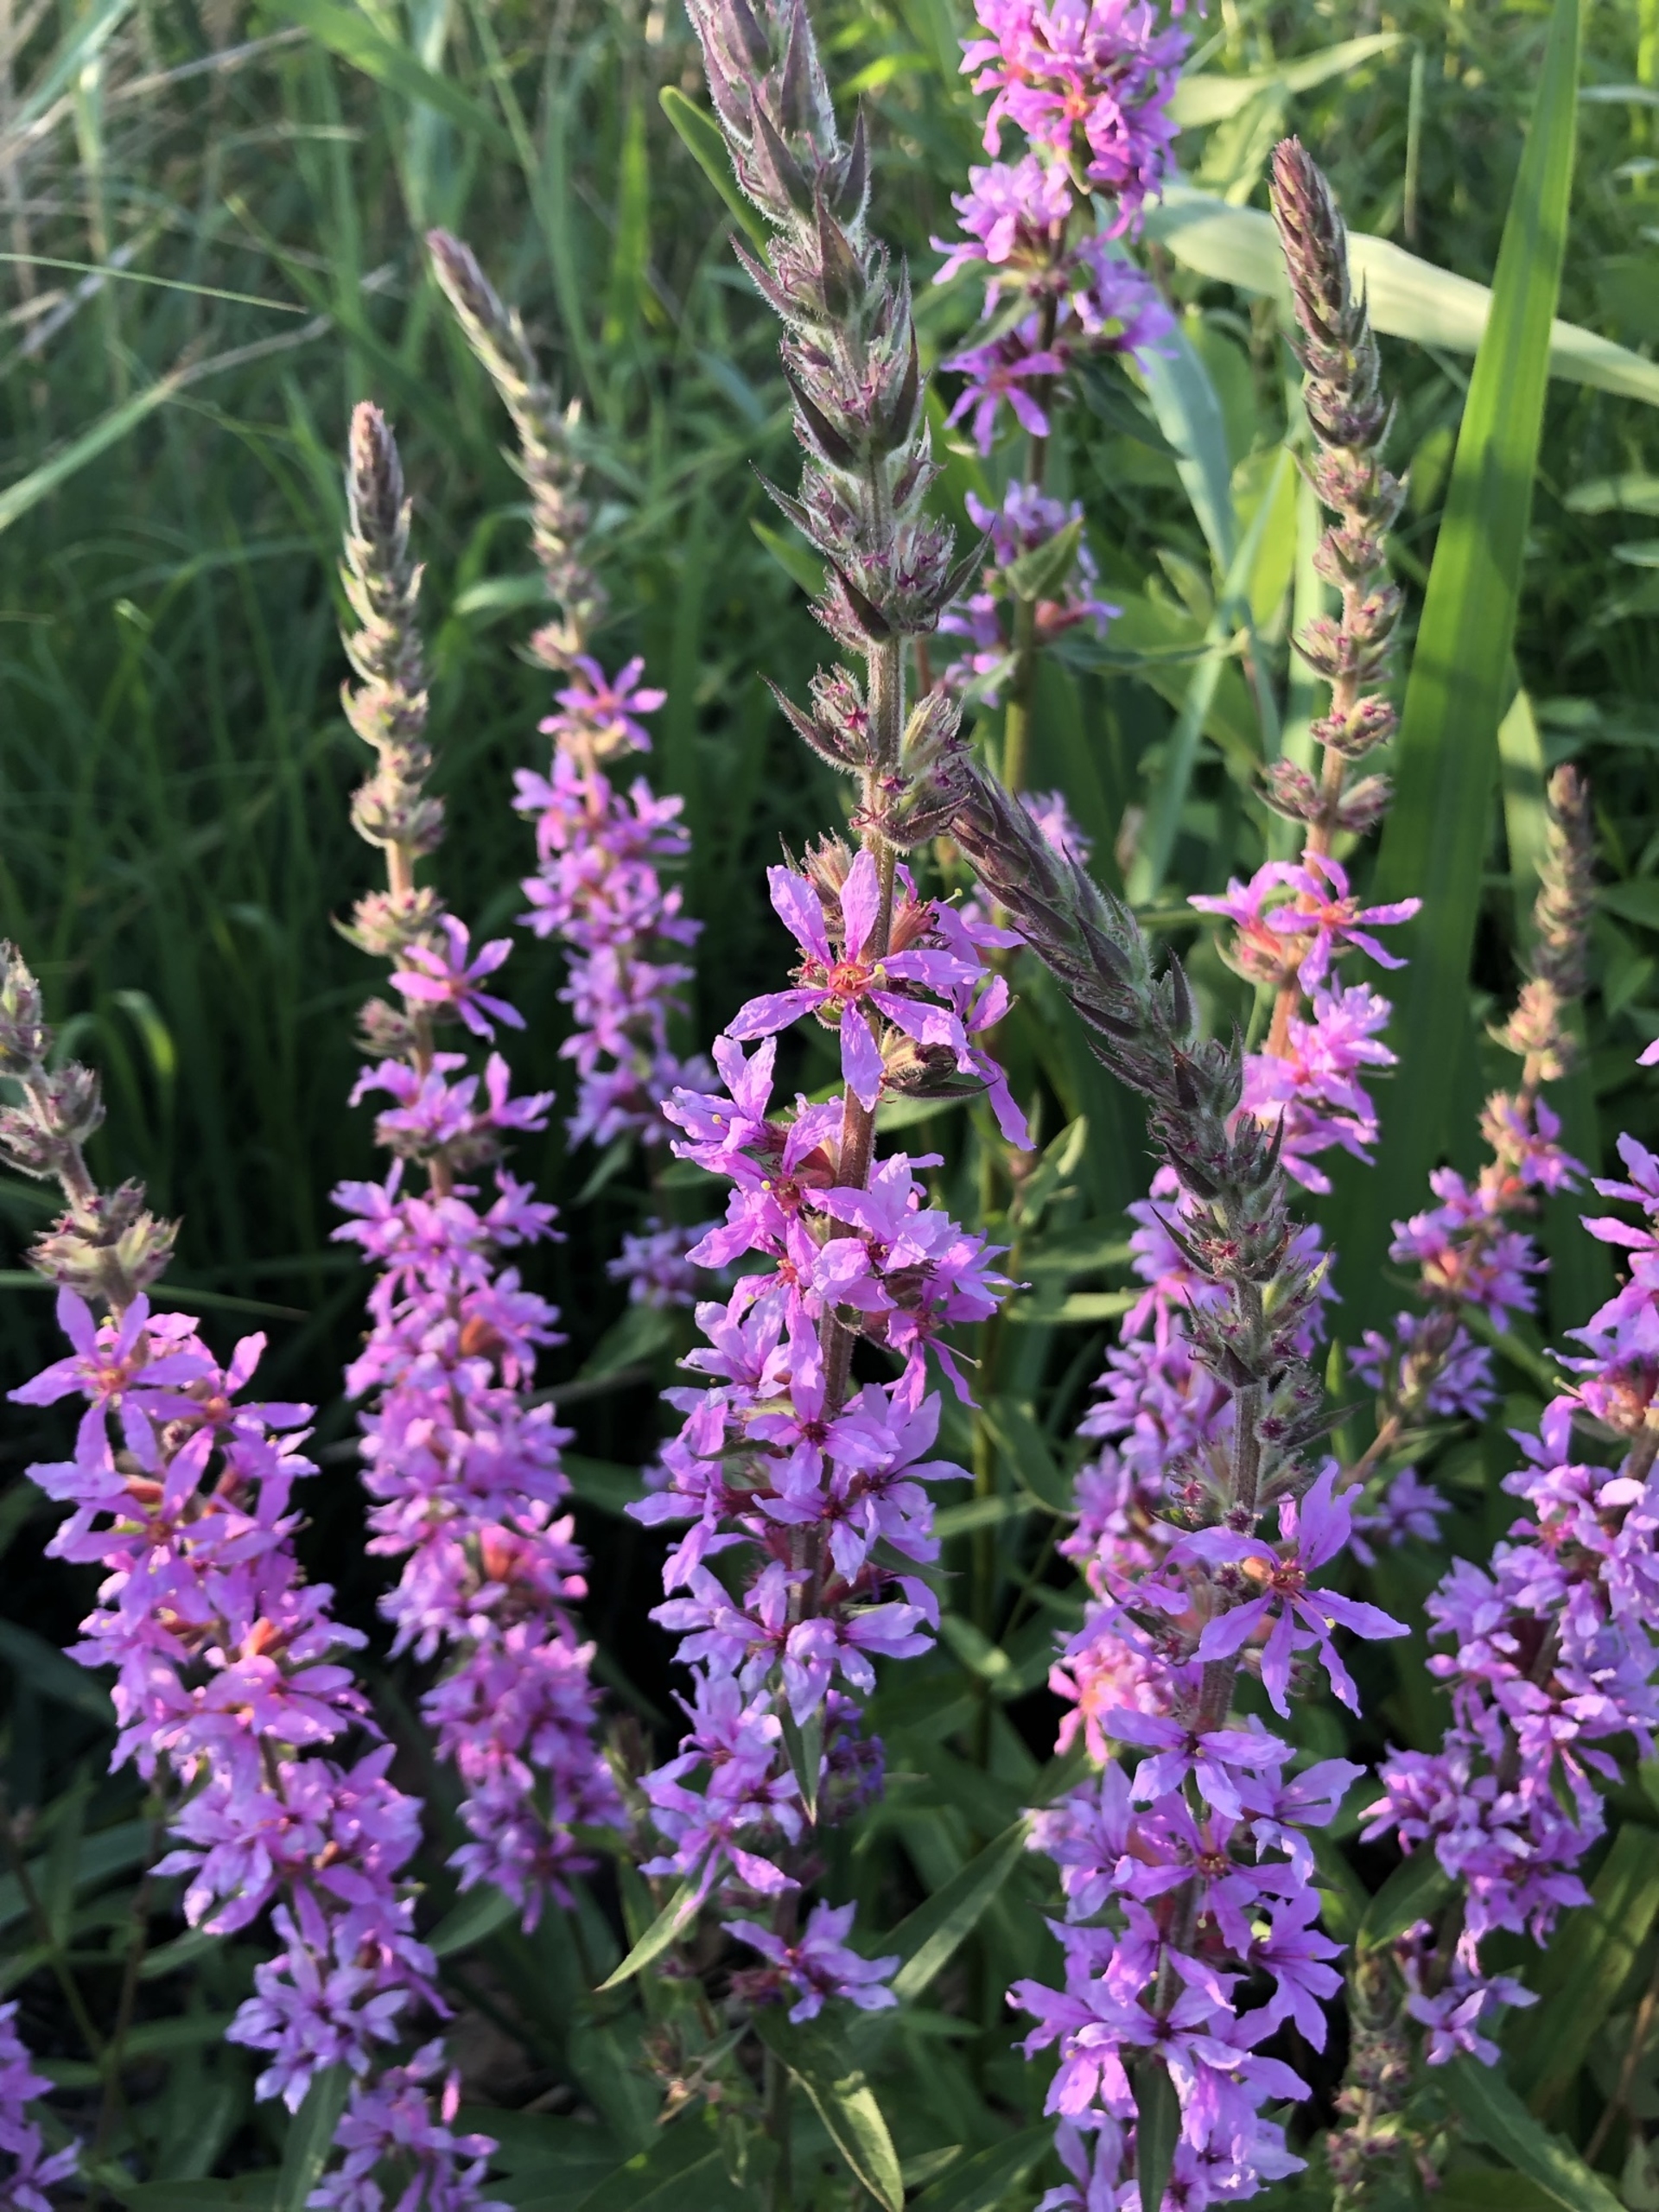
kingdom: Plantae
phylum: Tracheophyta
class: Magnoliopsida
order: Myrtales
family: Lythraceae
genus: Lythrum
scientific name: Lythrum salicaria
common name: Kattehale
